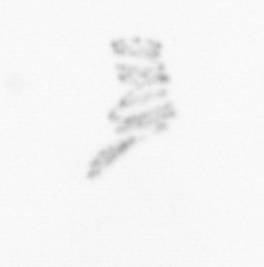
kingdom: Chromista
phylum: Ochrophyta
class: Bacillariophyceae
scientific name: Bacillariophyceae
